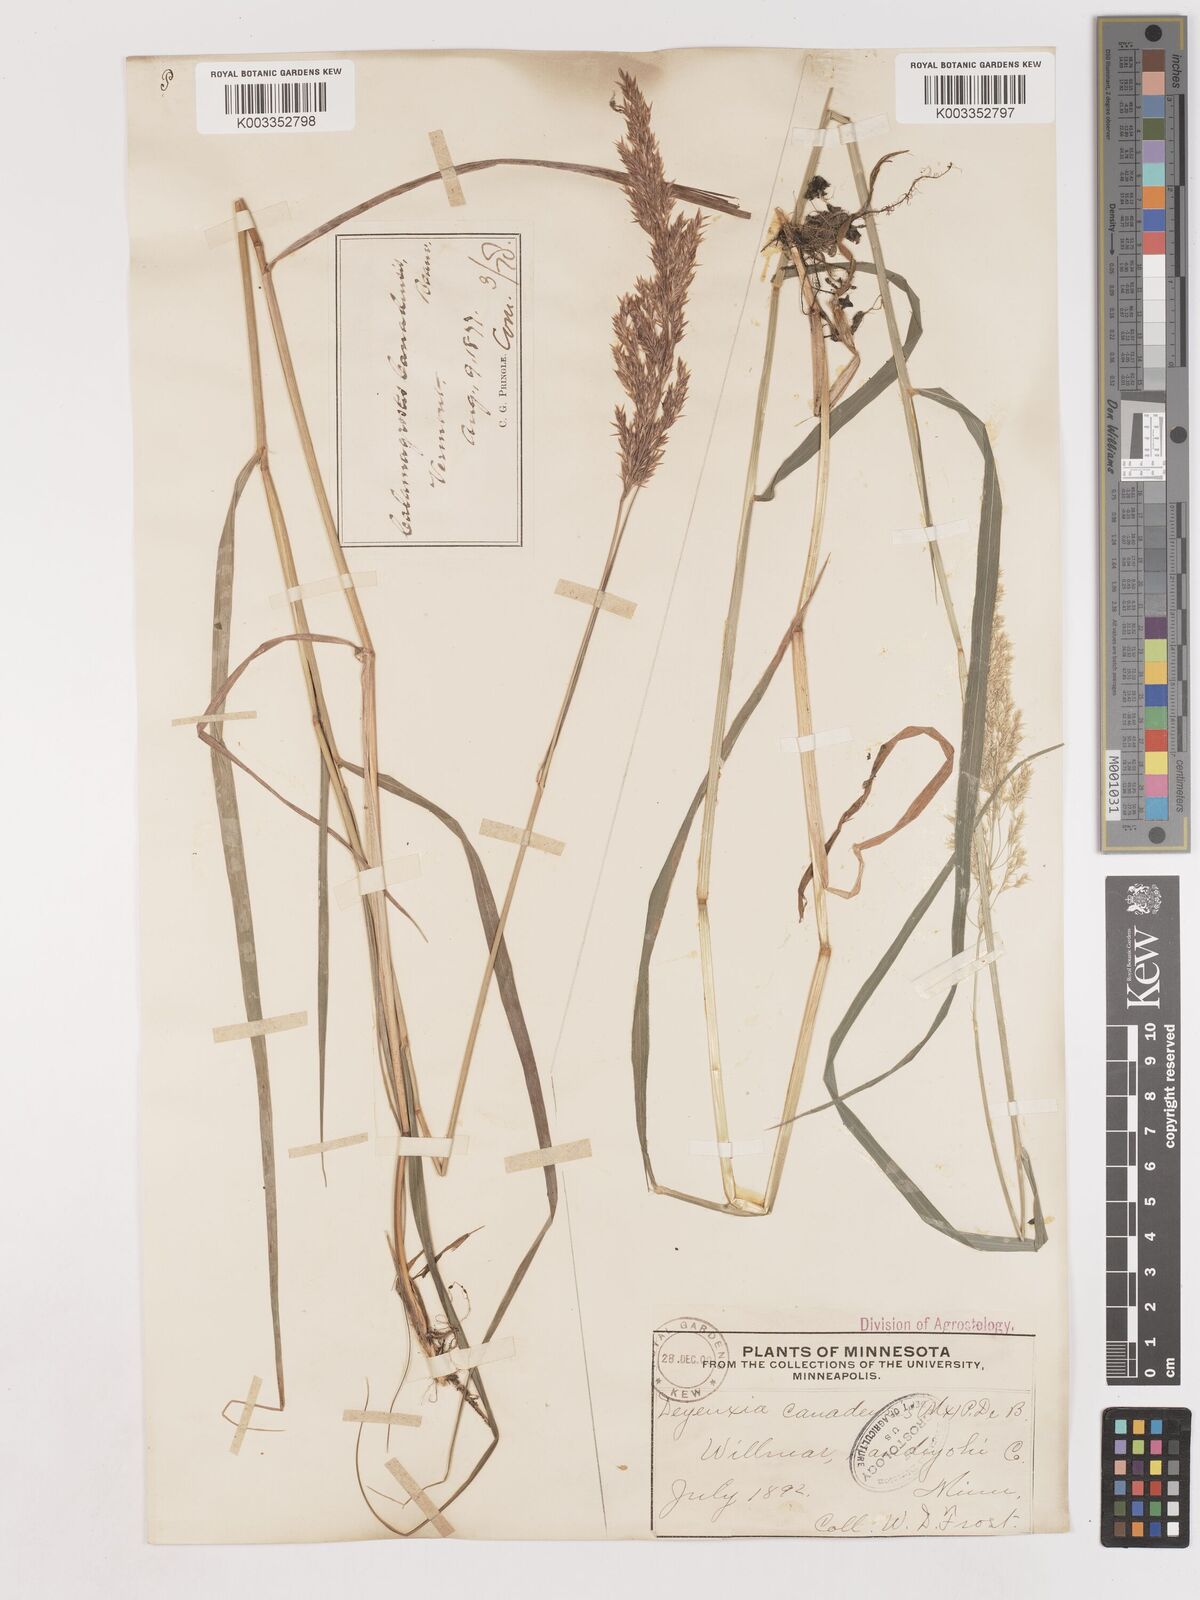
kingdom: Plantae
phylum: Tracheophyta
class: Liliopsida
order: Poales
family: Poaceae
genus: Calamagrostis
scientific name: Calamagrostis canadensis
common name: Canada bluejoint
